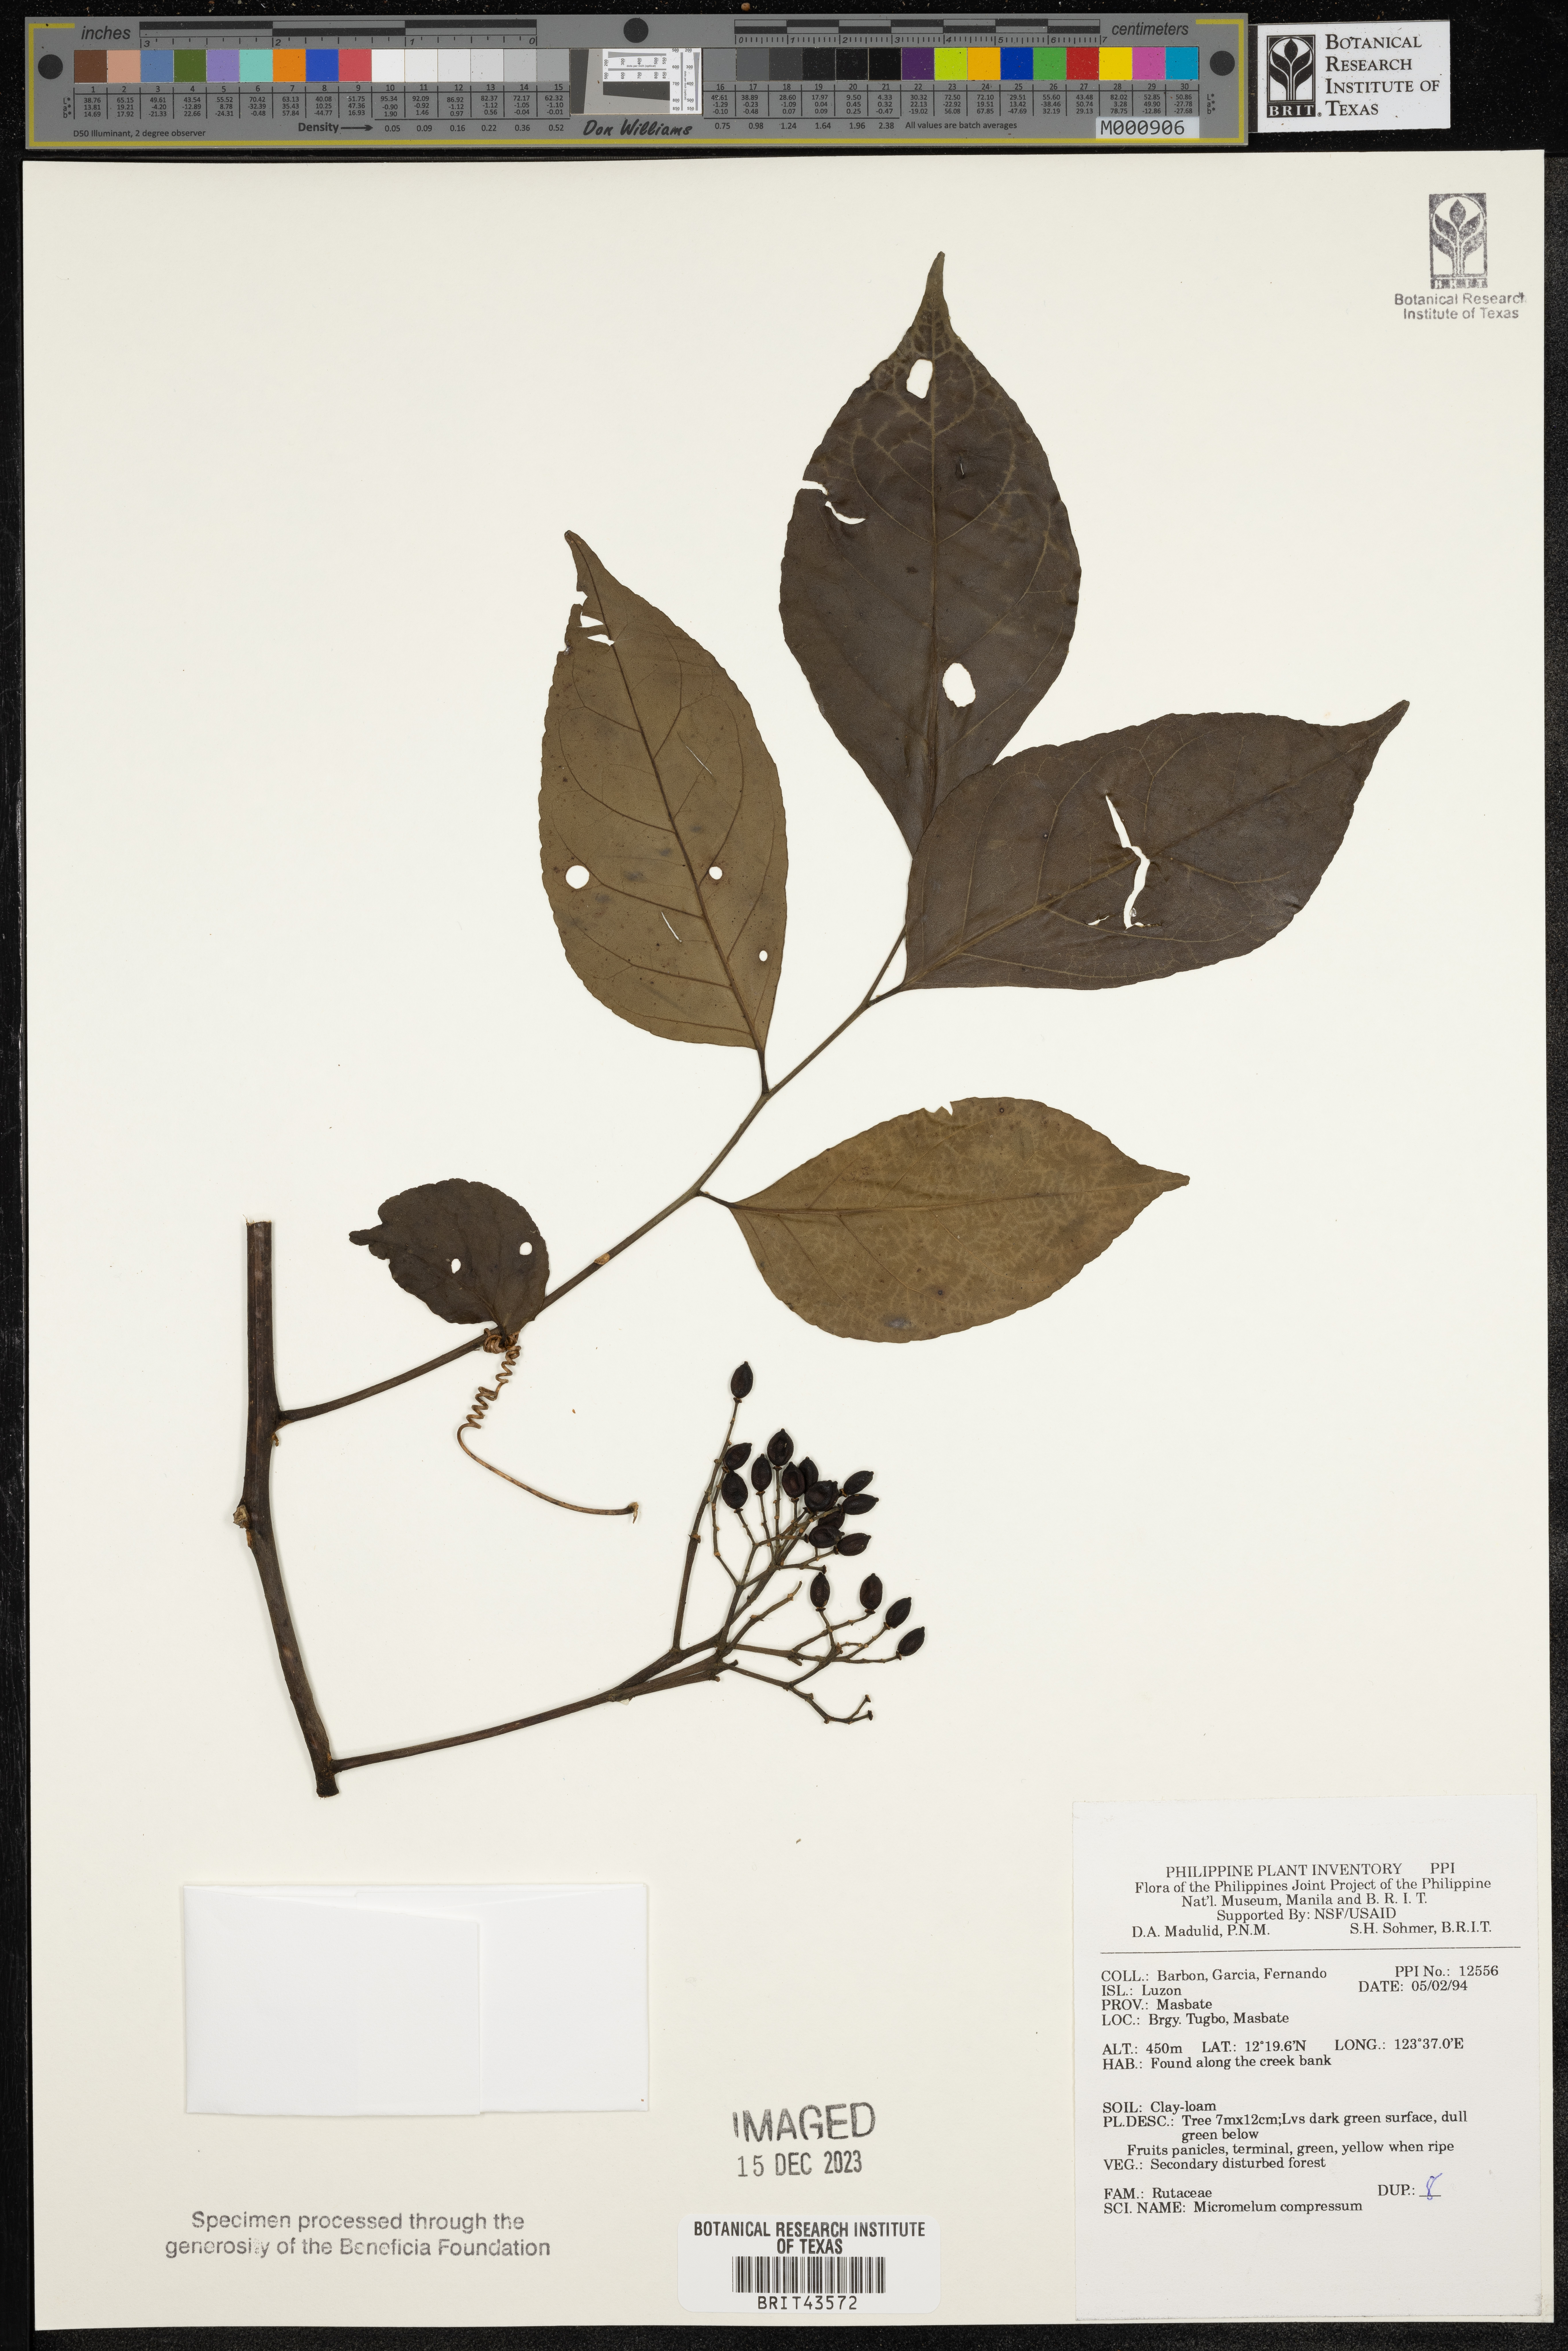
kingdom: Plantae
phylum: Tracheophyta
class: Magnoliopsida
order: Malpighiales
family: Euphorbiaceae
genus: Croton
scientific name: Croton linearis
